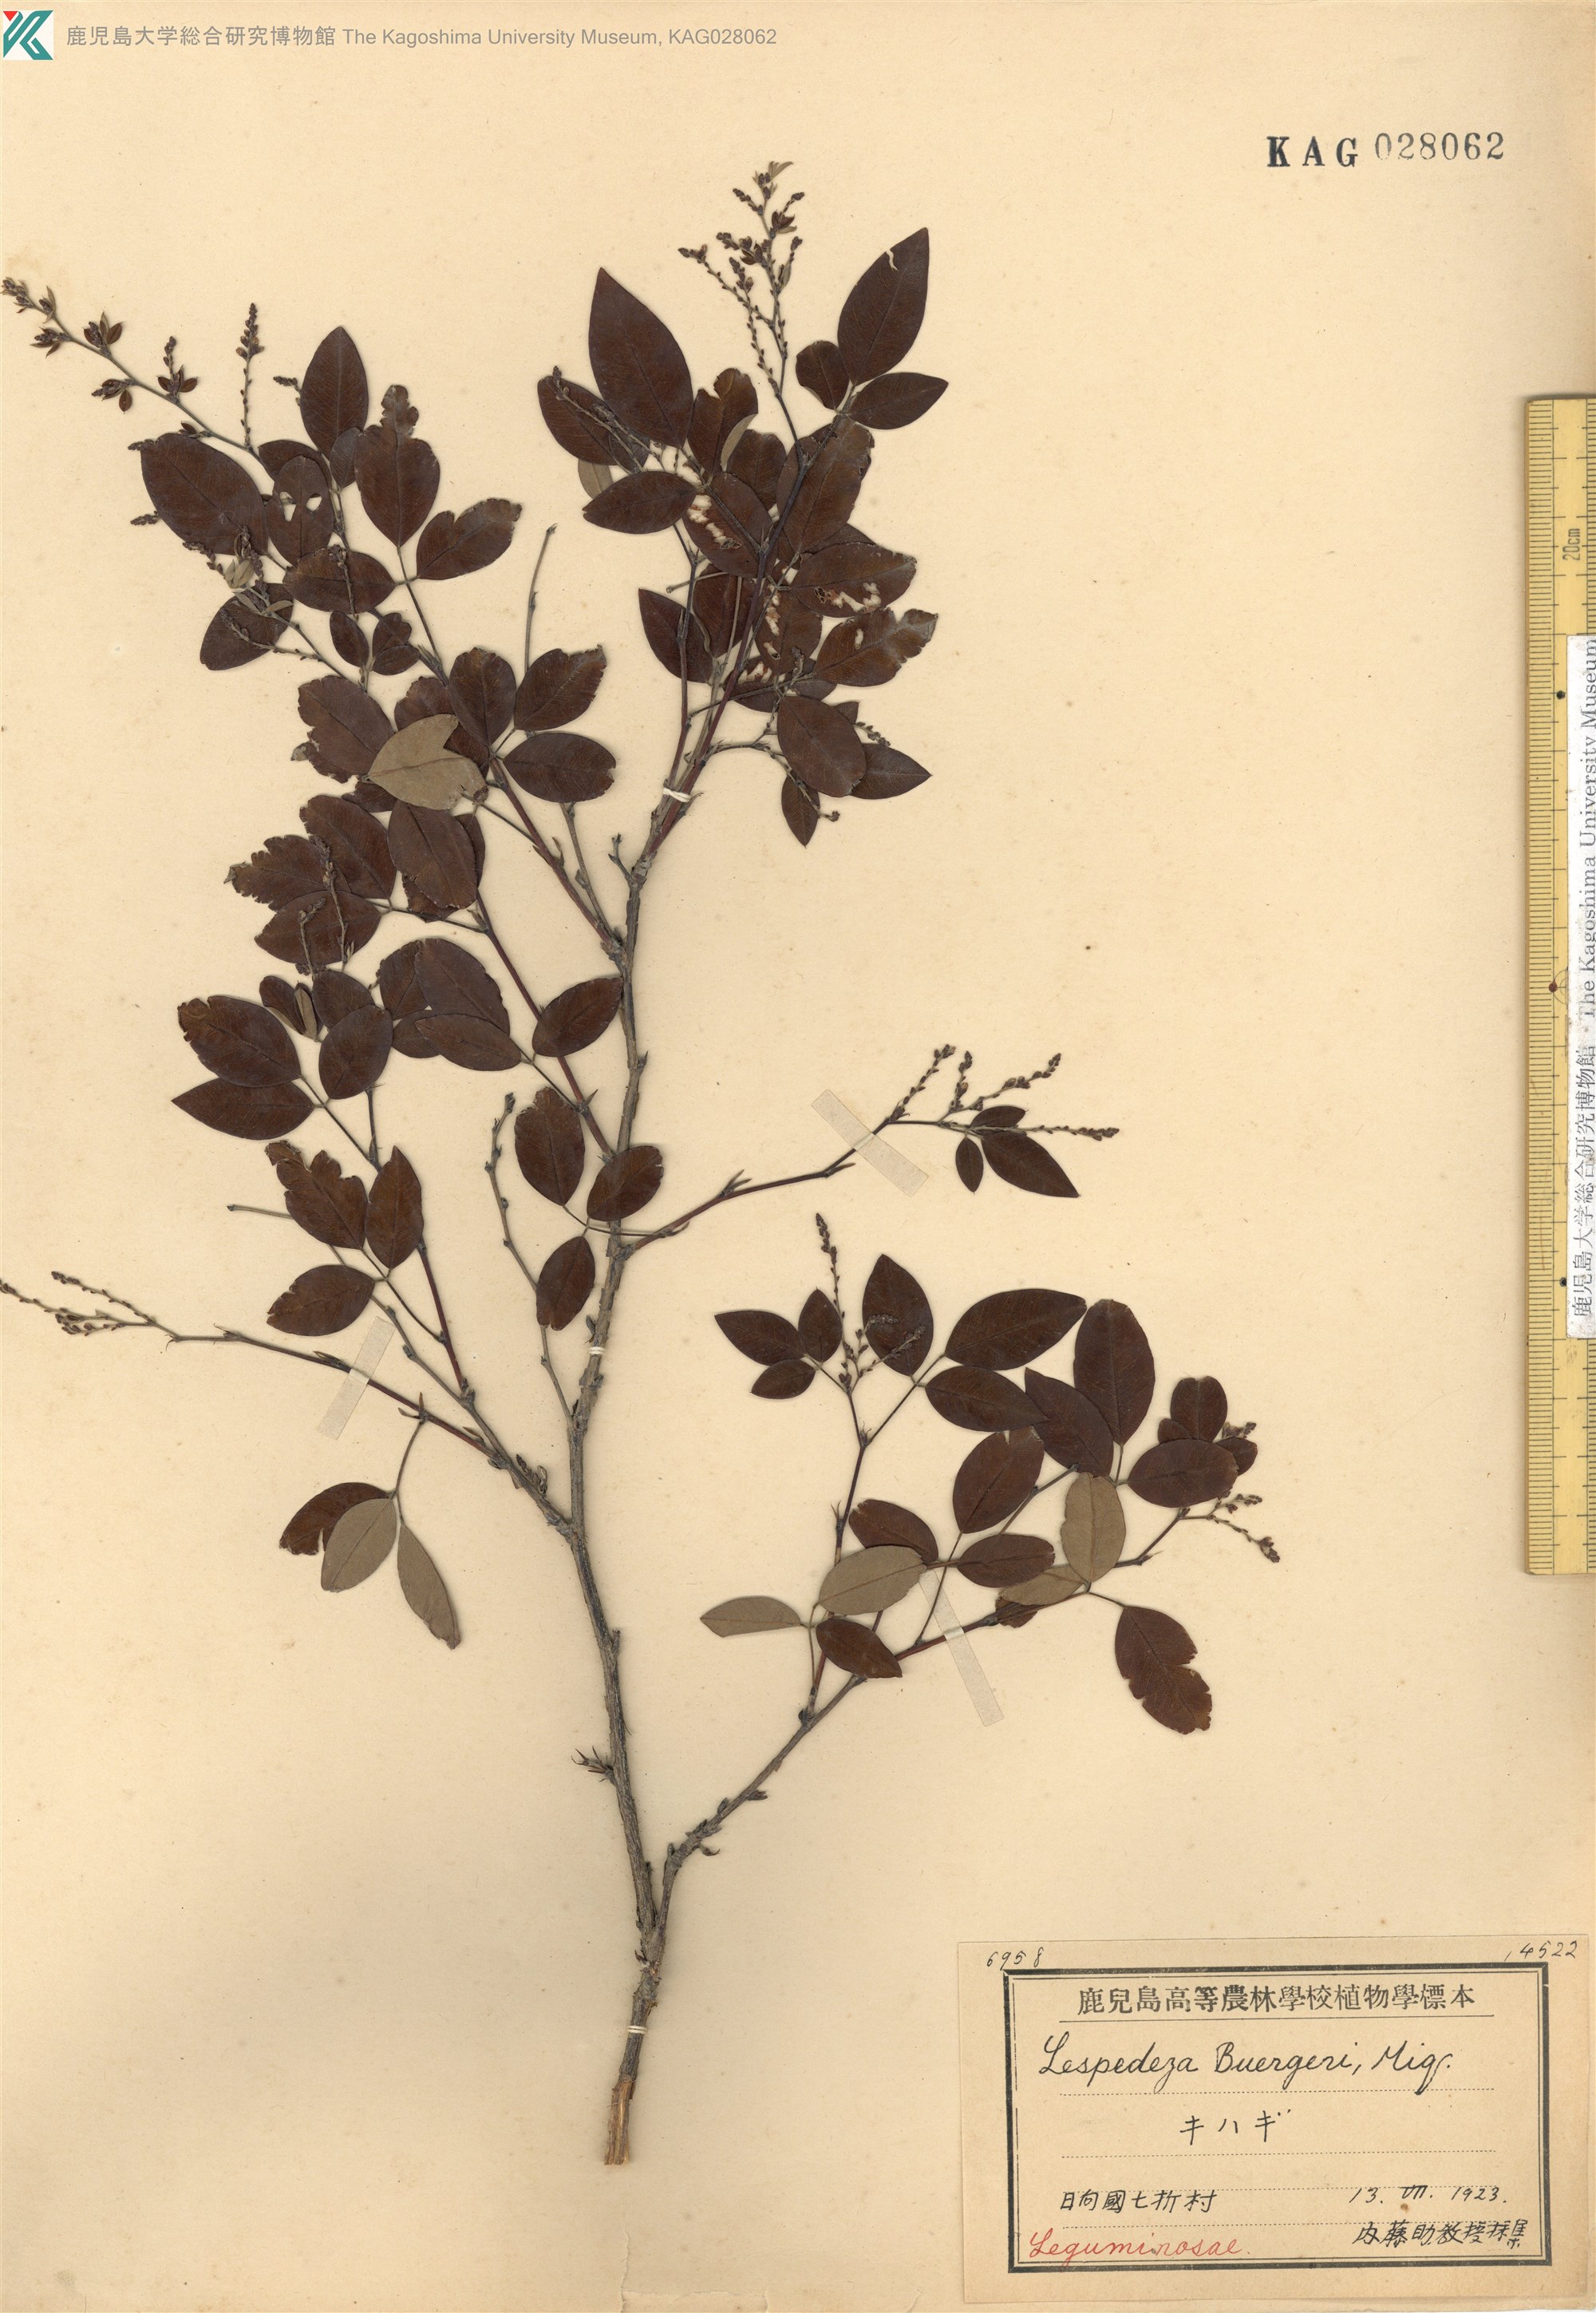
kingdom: Plantae
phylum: Tracheophyta
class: Magnoliopsida
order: Fabales
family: Fabaceae
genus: Lespedeza
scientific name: Lespedeza buergeri
